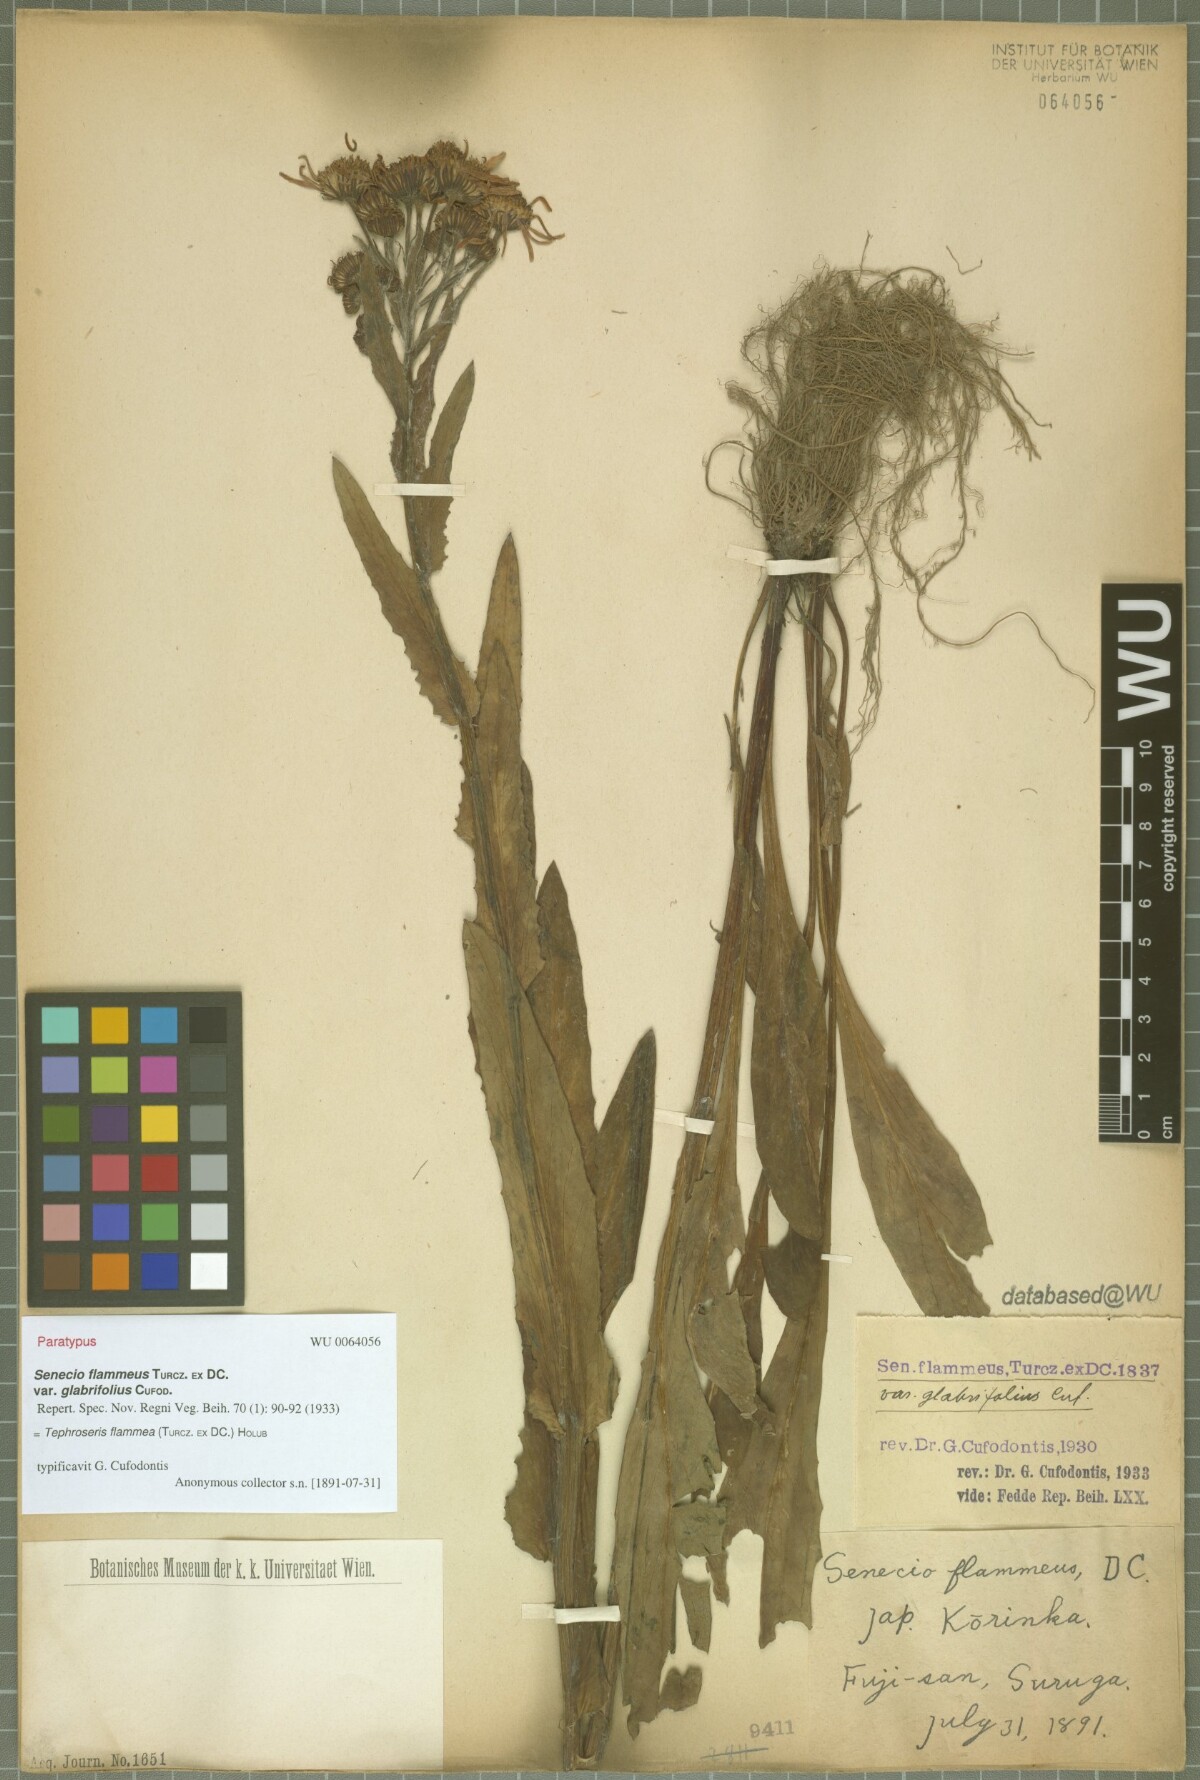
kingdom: Plantae
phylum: Tracheophyta
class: Magnoliopsida
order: Asterales
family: Asteraceae
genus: Tephroseris
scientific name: Tephroseris flammea
